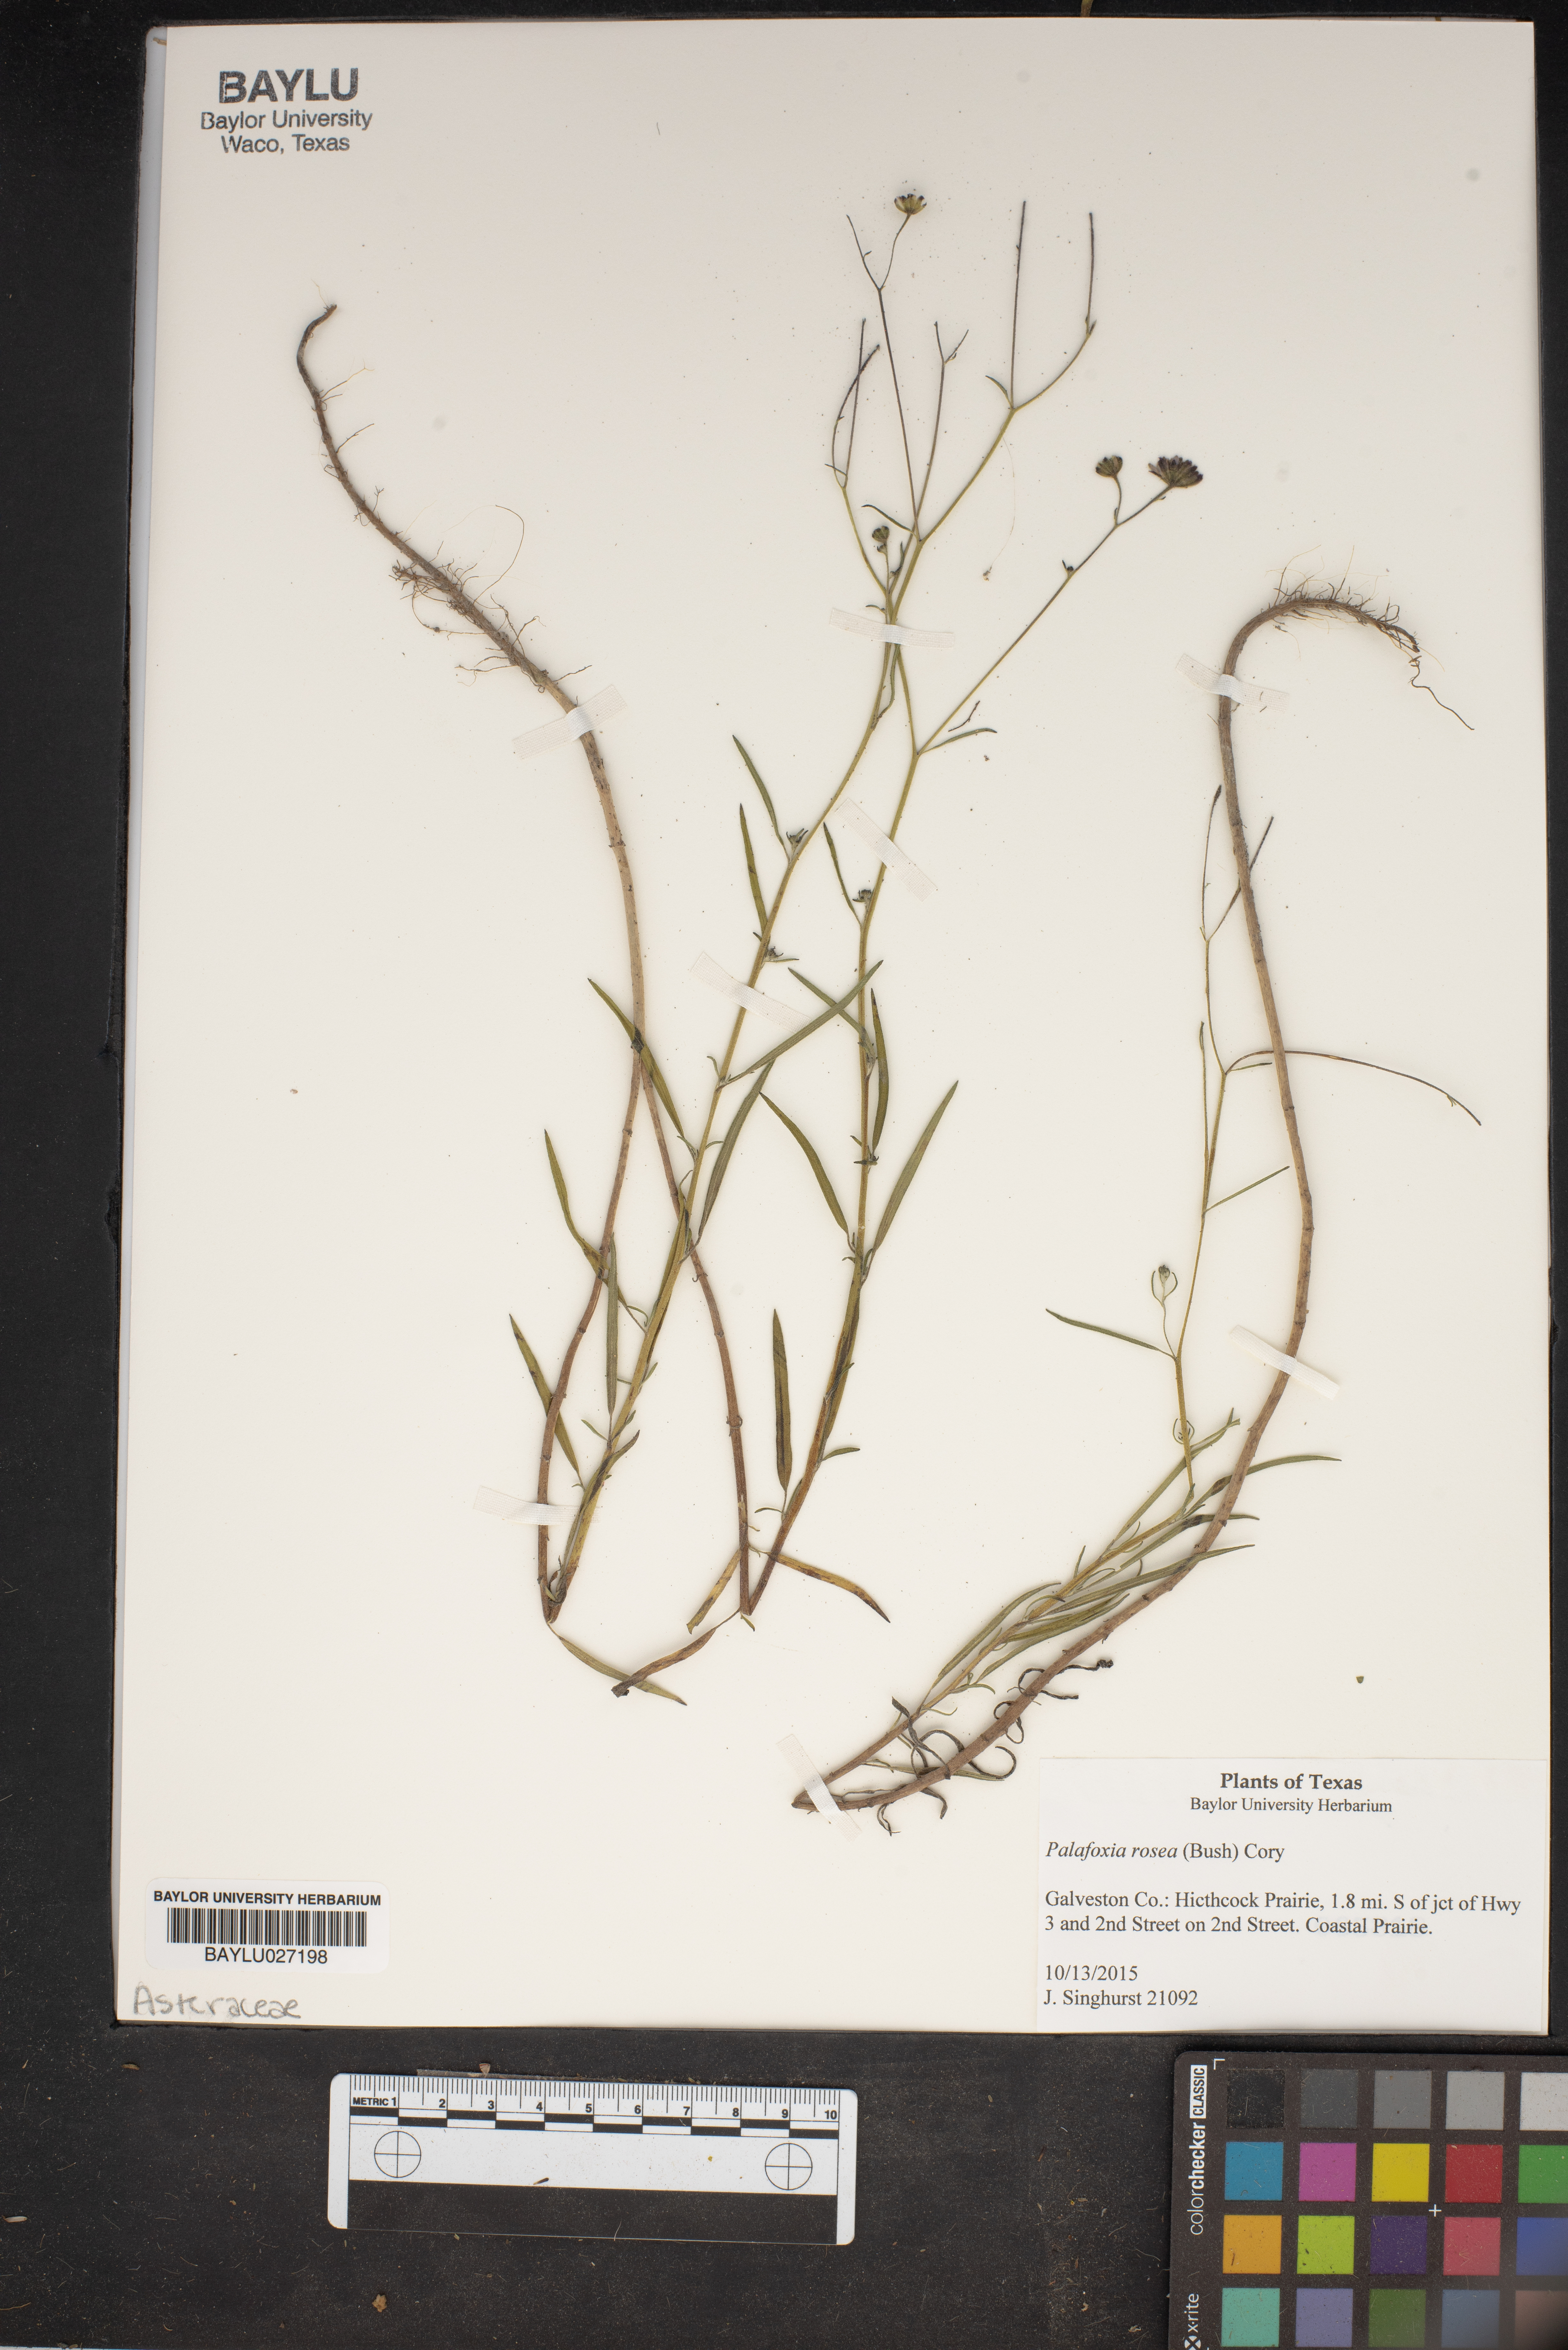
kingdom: Plantae
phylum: Tracheophyta
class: Magnoliopsida
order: Asterales
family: Asteraceae
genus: Palafoxia
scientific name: Palafoxia rosea
